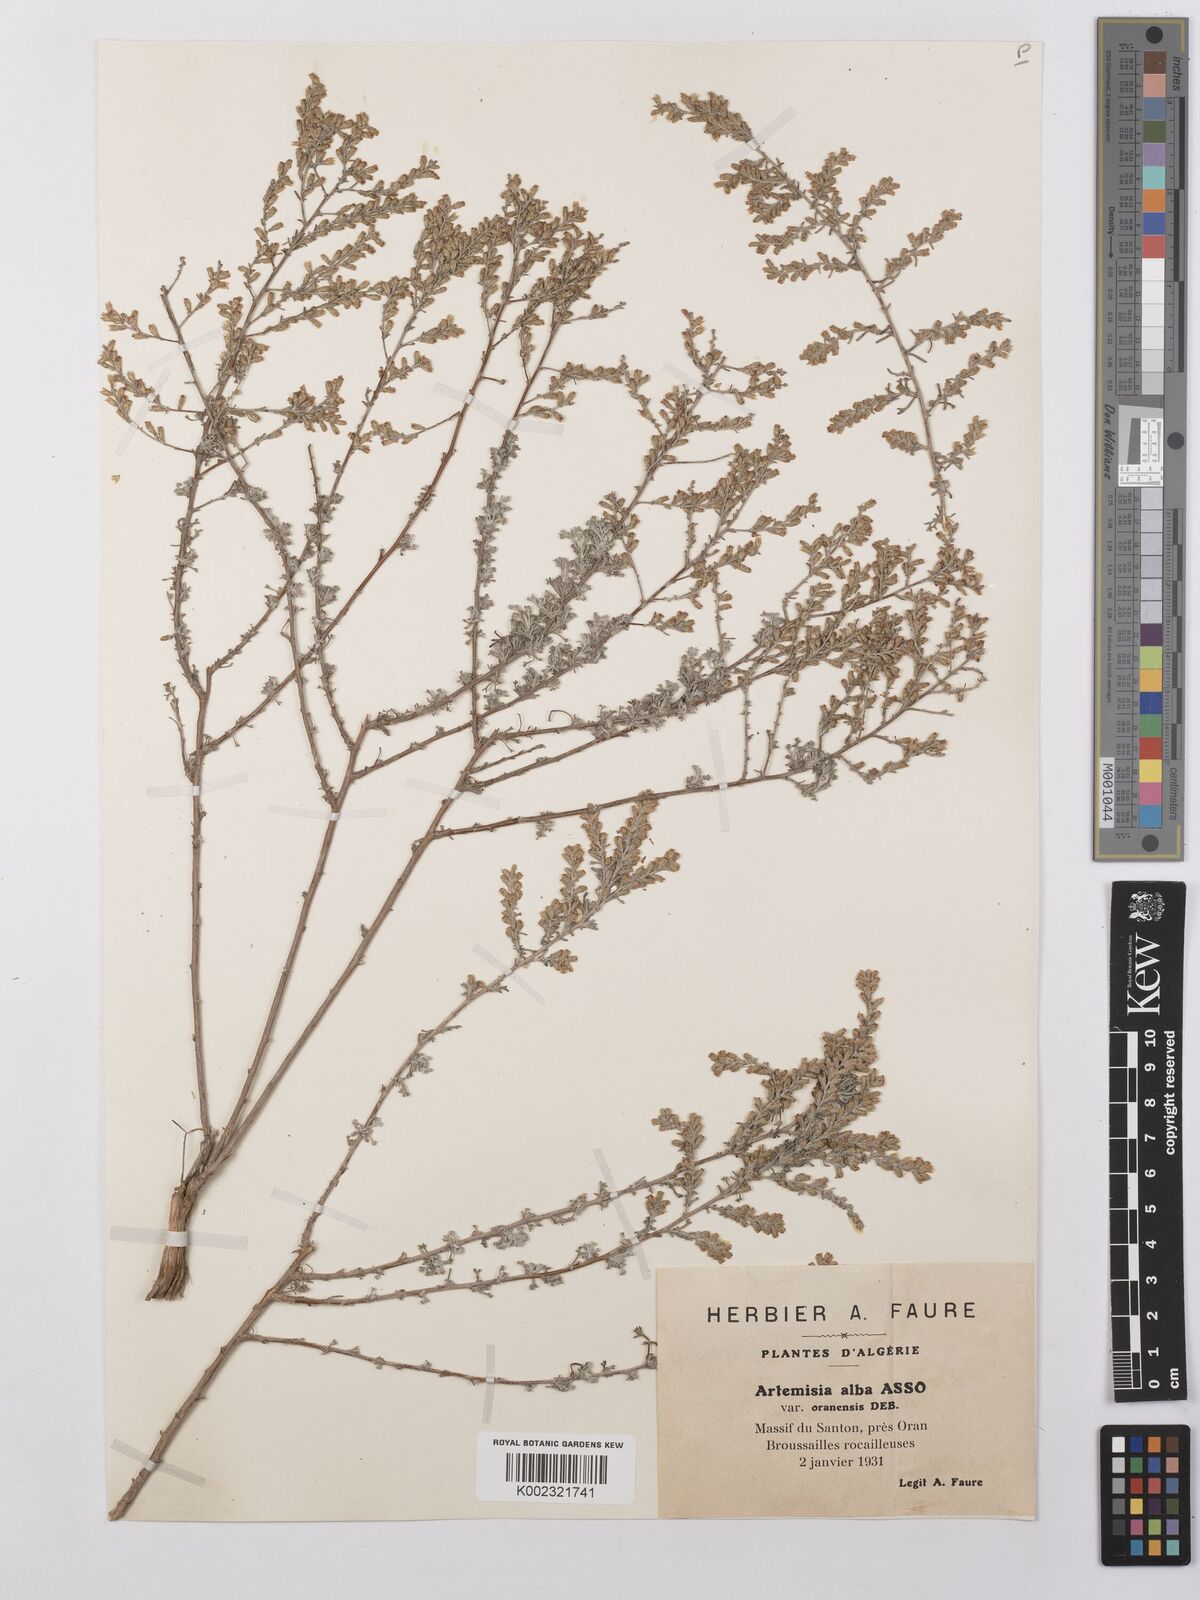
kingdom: Plantae
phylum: Tracheophyta
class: Magnoliopsida
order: Asterales
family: Asteraceae
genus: Artemisia
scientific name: Artemisia herba-alba
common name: White wormwood
